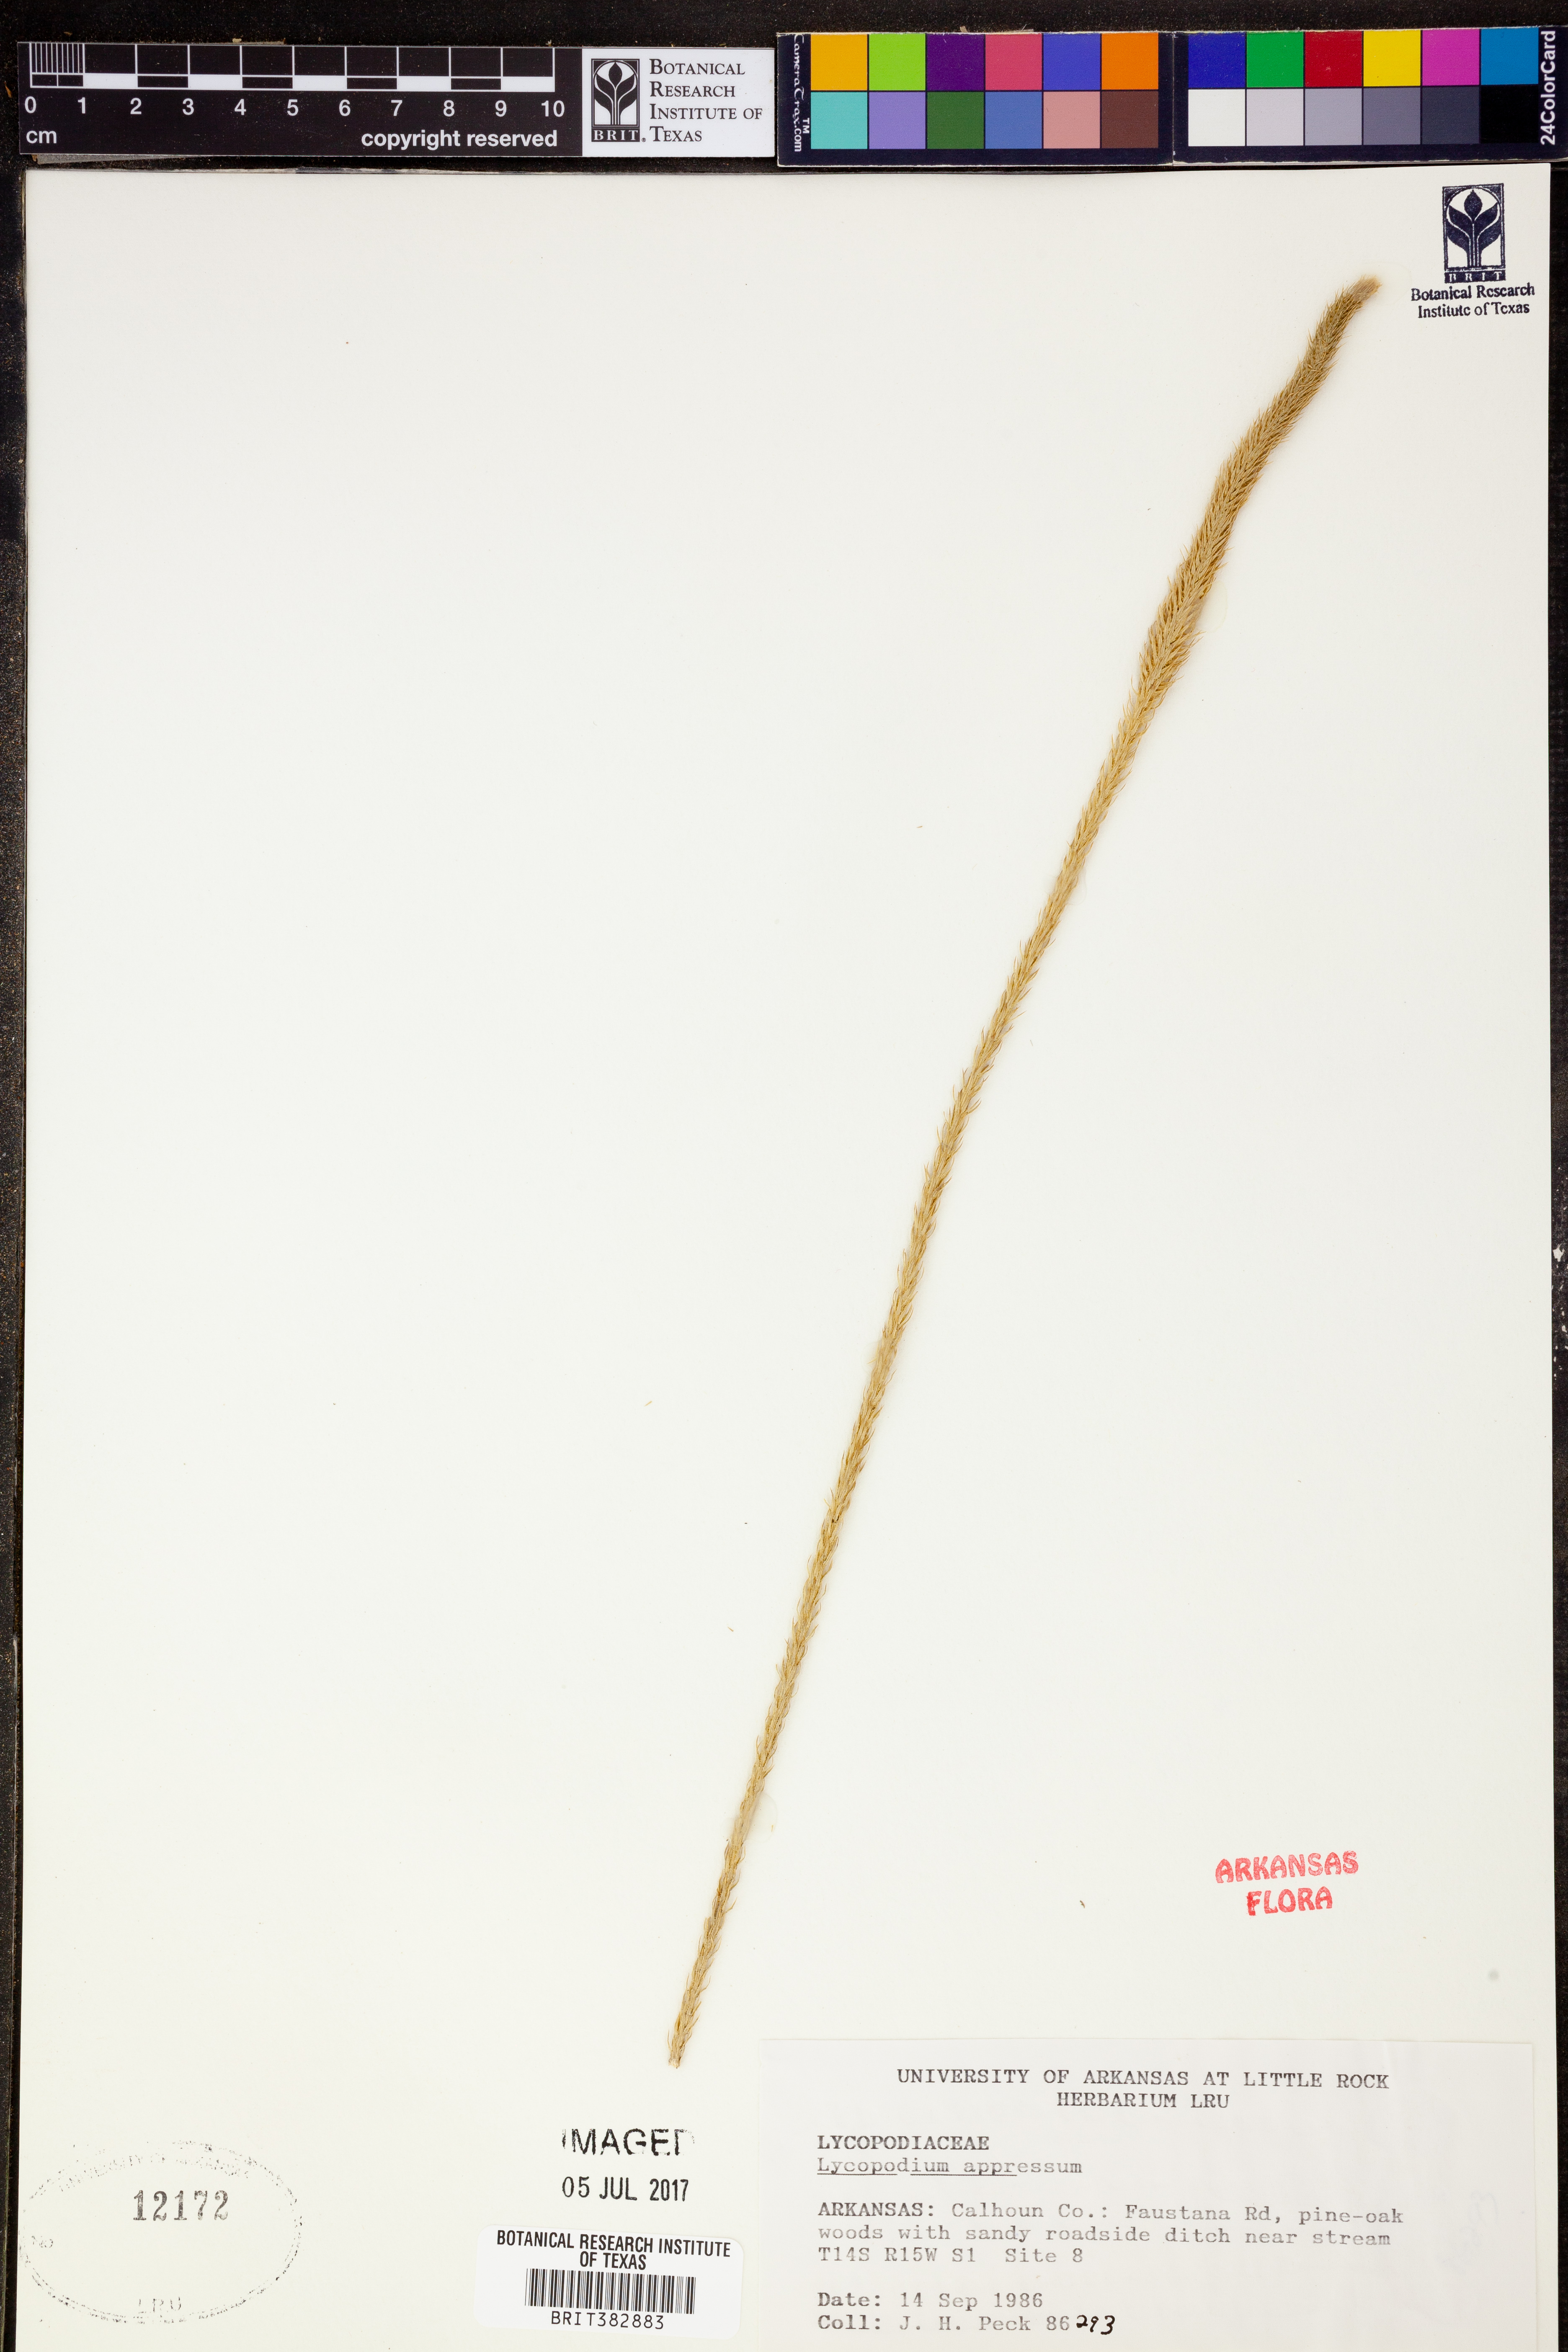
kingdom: Plantae
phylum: Tracheophyta
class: Lycopodiopsida
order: Lycopodiales
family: Lycopodiaceae
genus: Lycopodiella
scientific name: Lycopodiella appressa
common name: Appressed bog clubmoss
